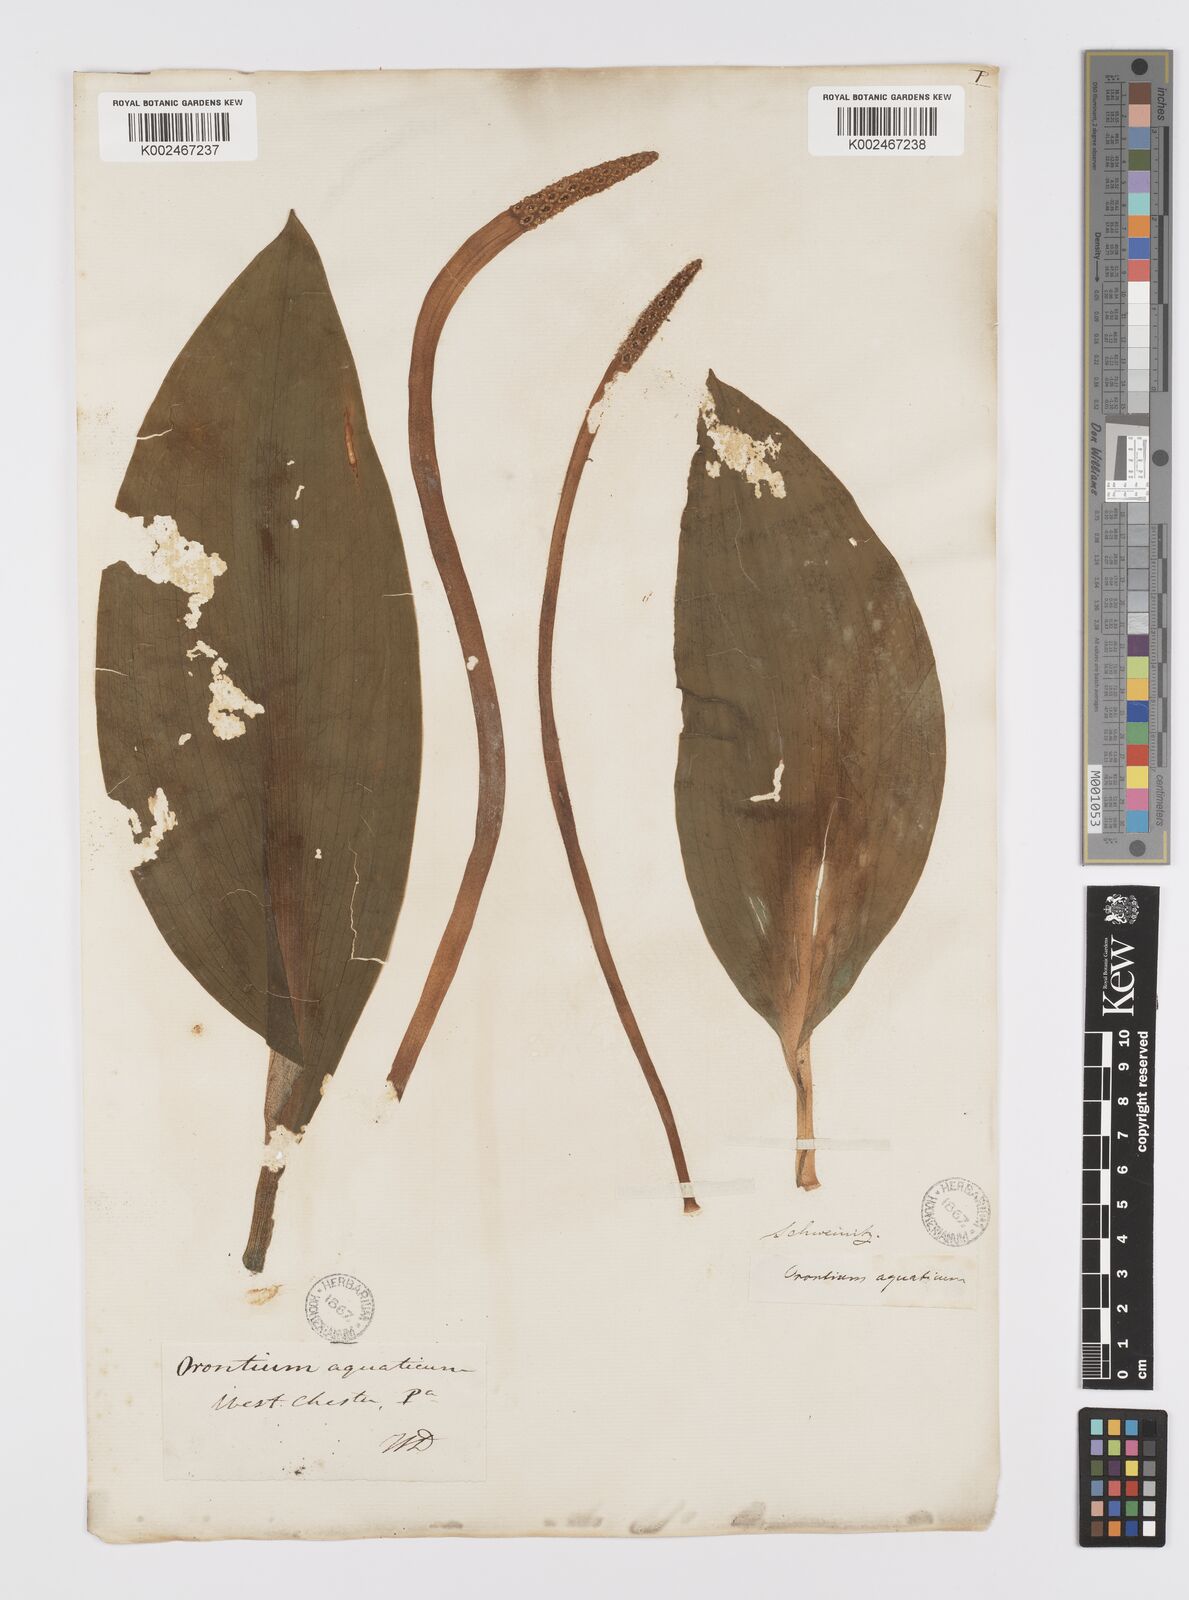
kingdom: Plantae
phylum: Tracheophyta
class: Liliopsida
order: Alismatales
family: Araceae
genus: Orontium
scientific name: Orontium aquaticum
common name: Golden-club
